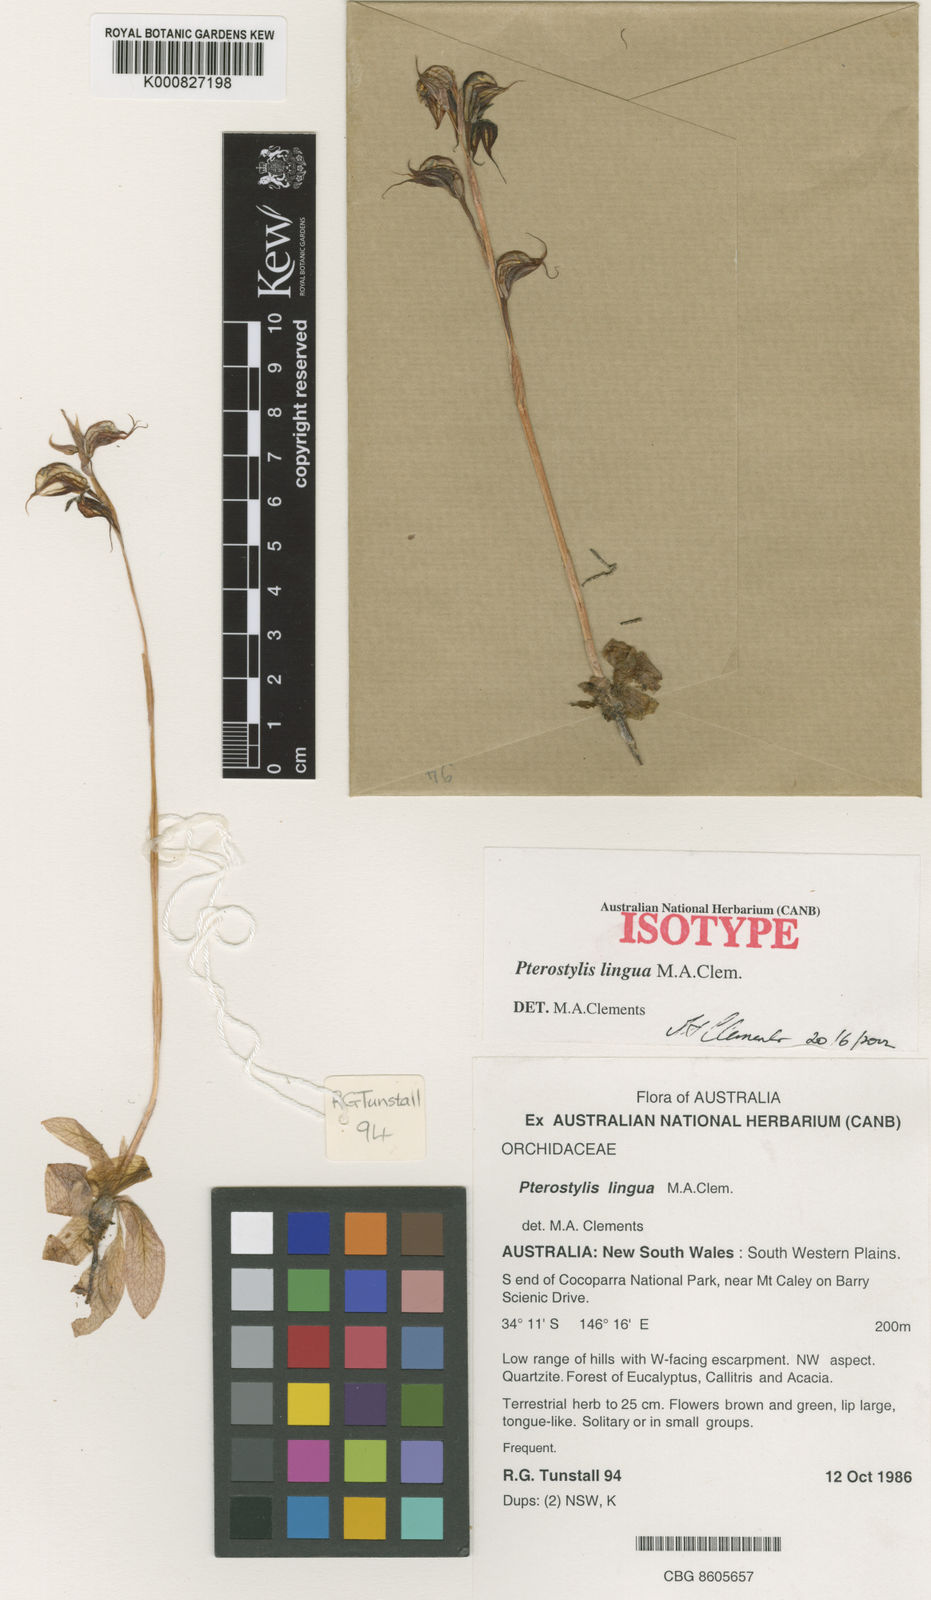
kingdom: Plantae
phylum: Tracheophyta
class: Liliopsida
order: Asparagales
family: Orchidaceae
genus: Pterostylis
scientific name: Pterostylis lingua
